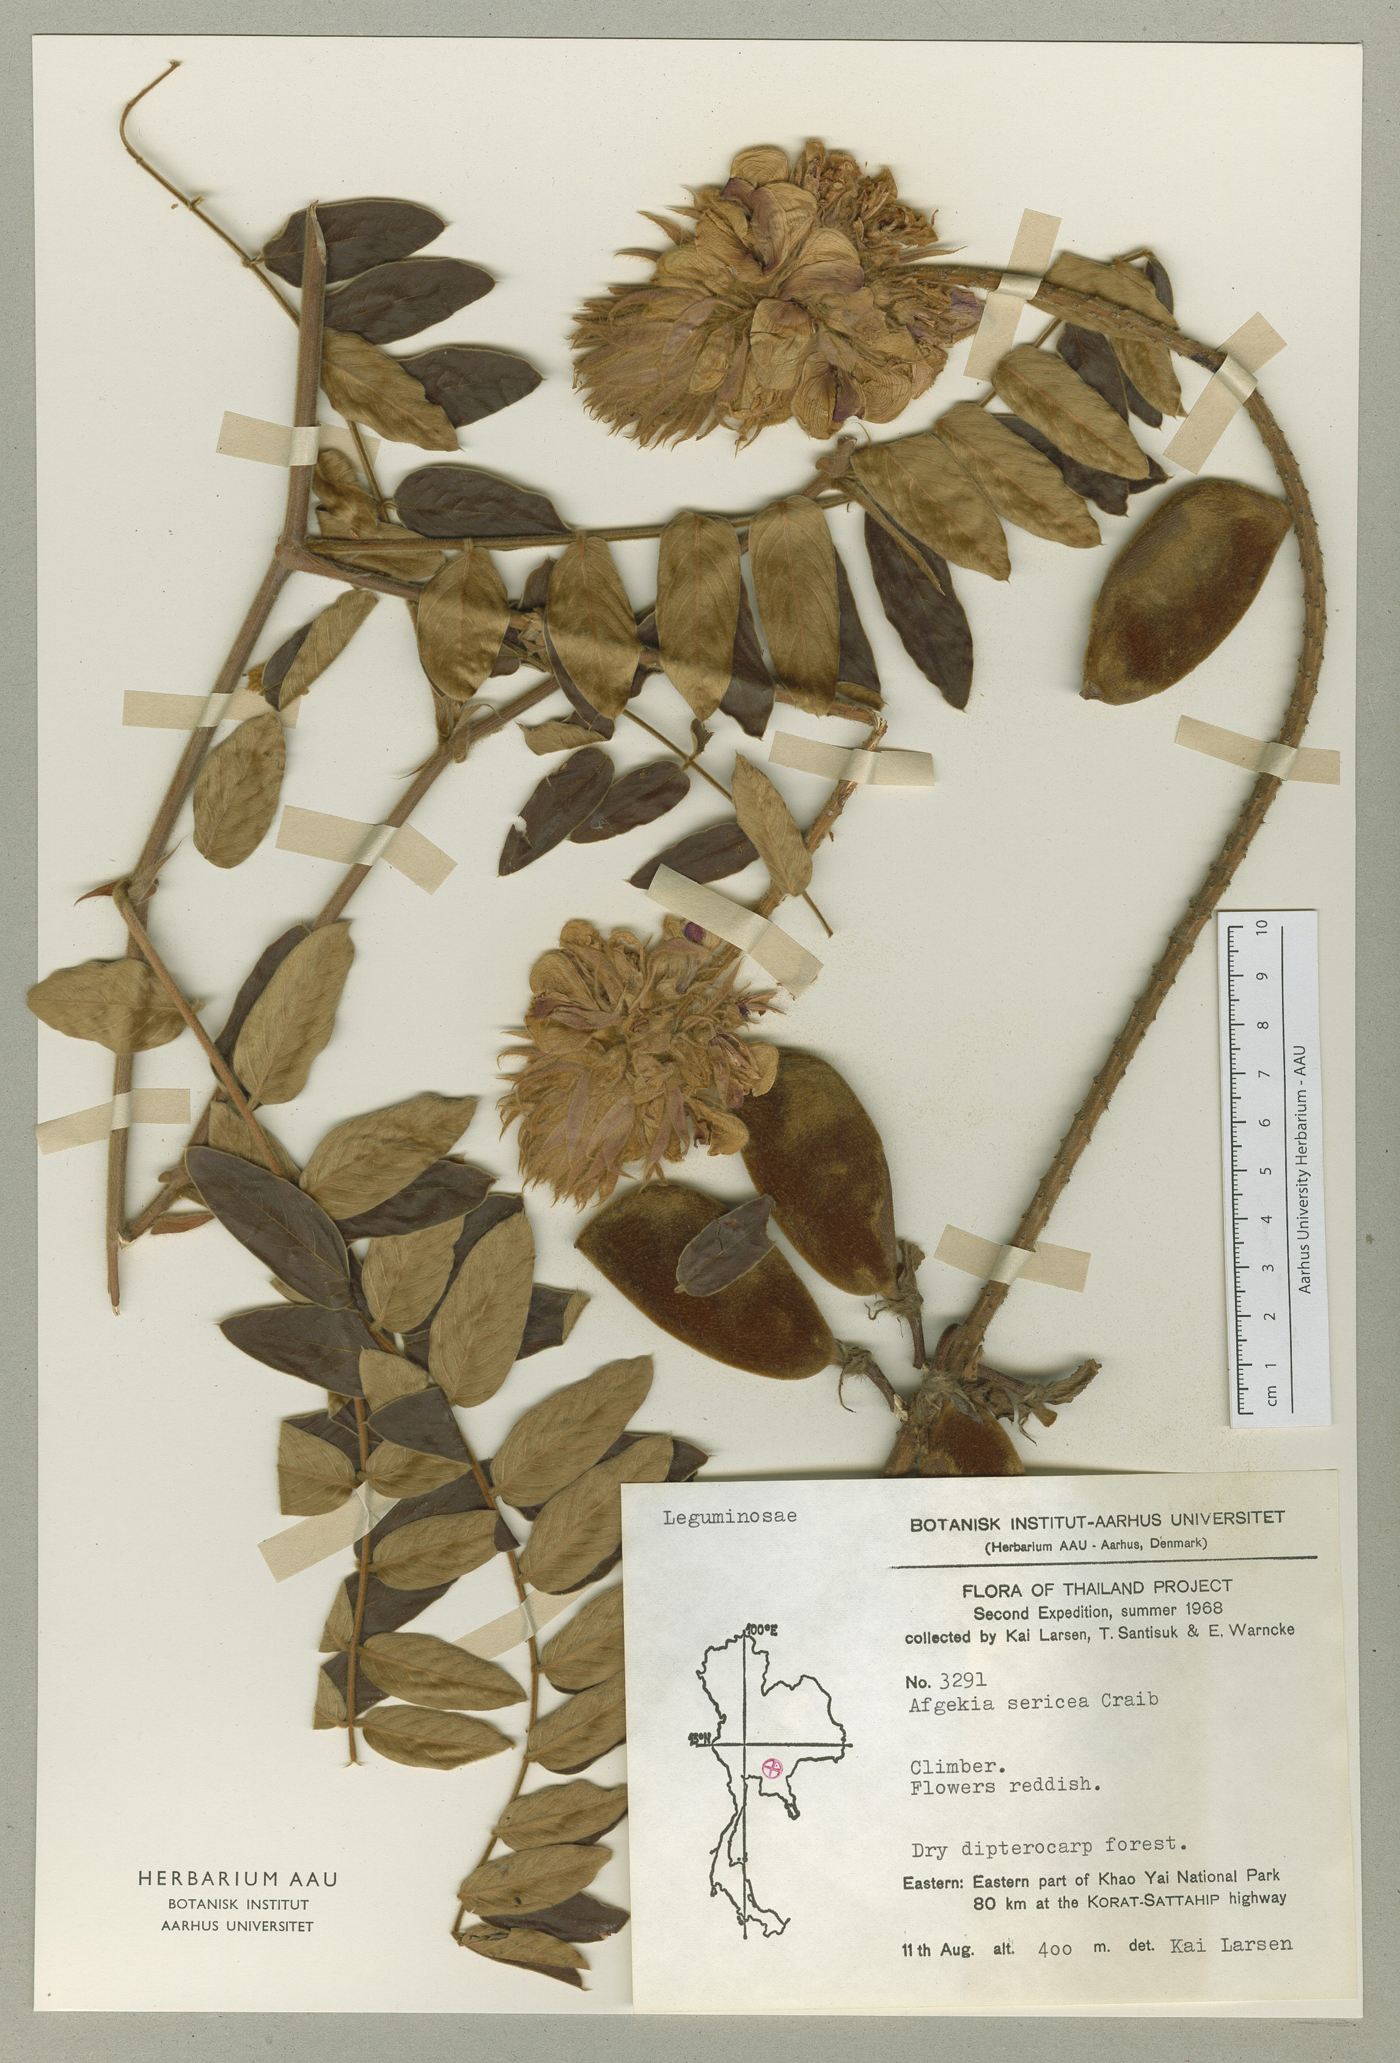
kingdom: Plantae
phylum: Tracheophyta
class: Magnoliopsida
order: Fabales
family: Fabaceae
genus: Afgekia
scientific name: Afgekia sericea
